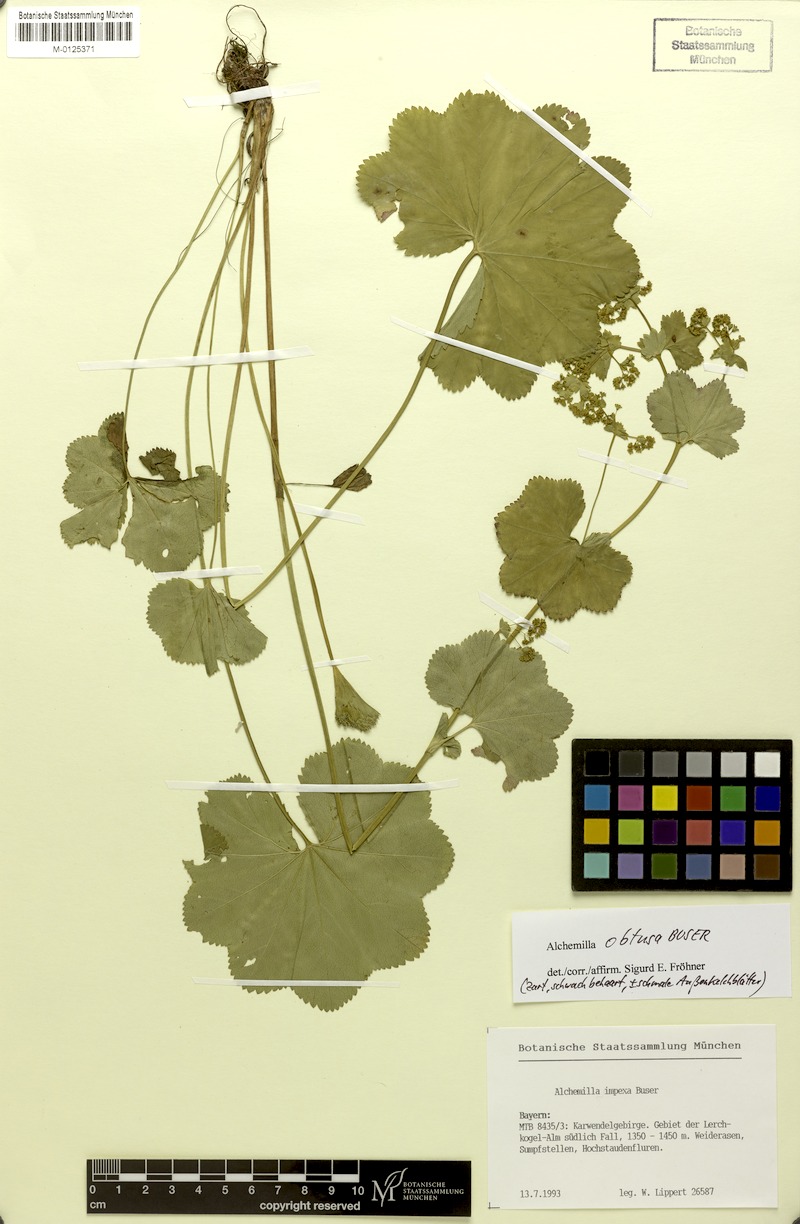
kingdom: Plantae
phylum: Tracheophyta
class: Magnoliopsida
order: Rosales
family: Rosaceae
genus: Alchemilla
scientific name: Alchemilla obtusa
